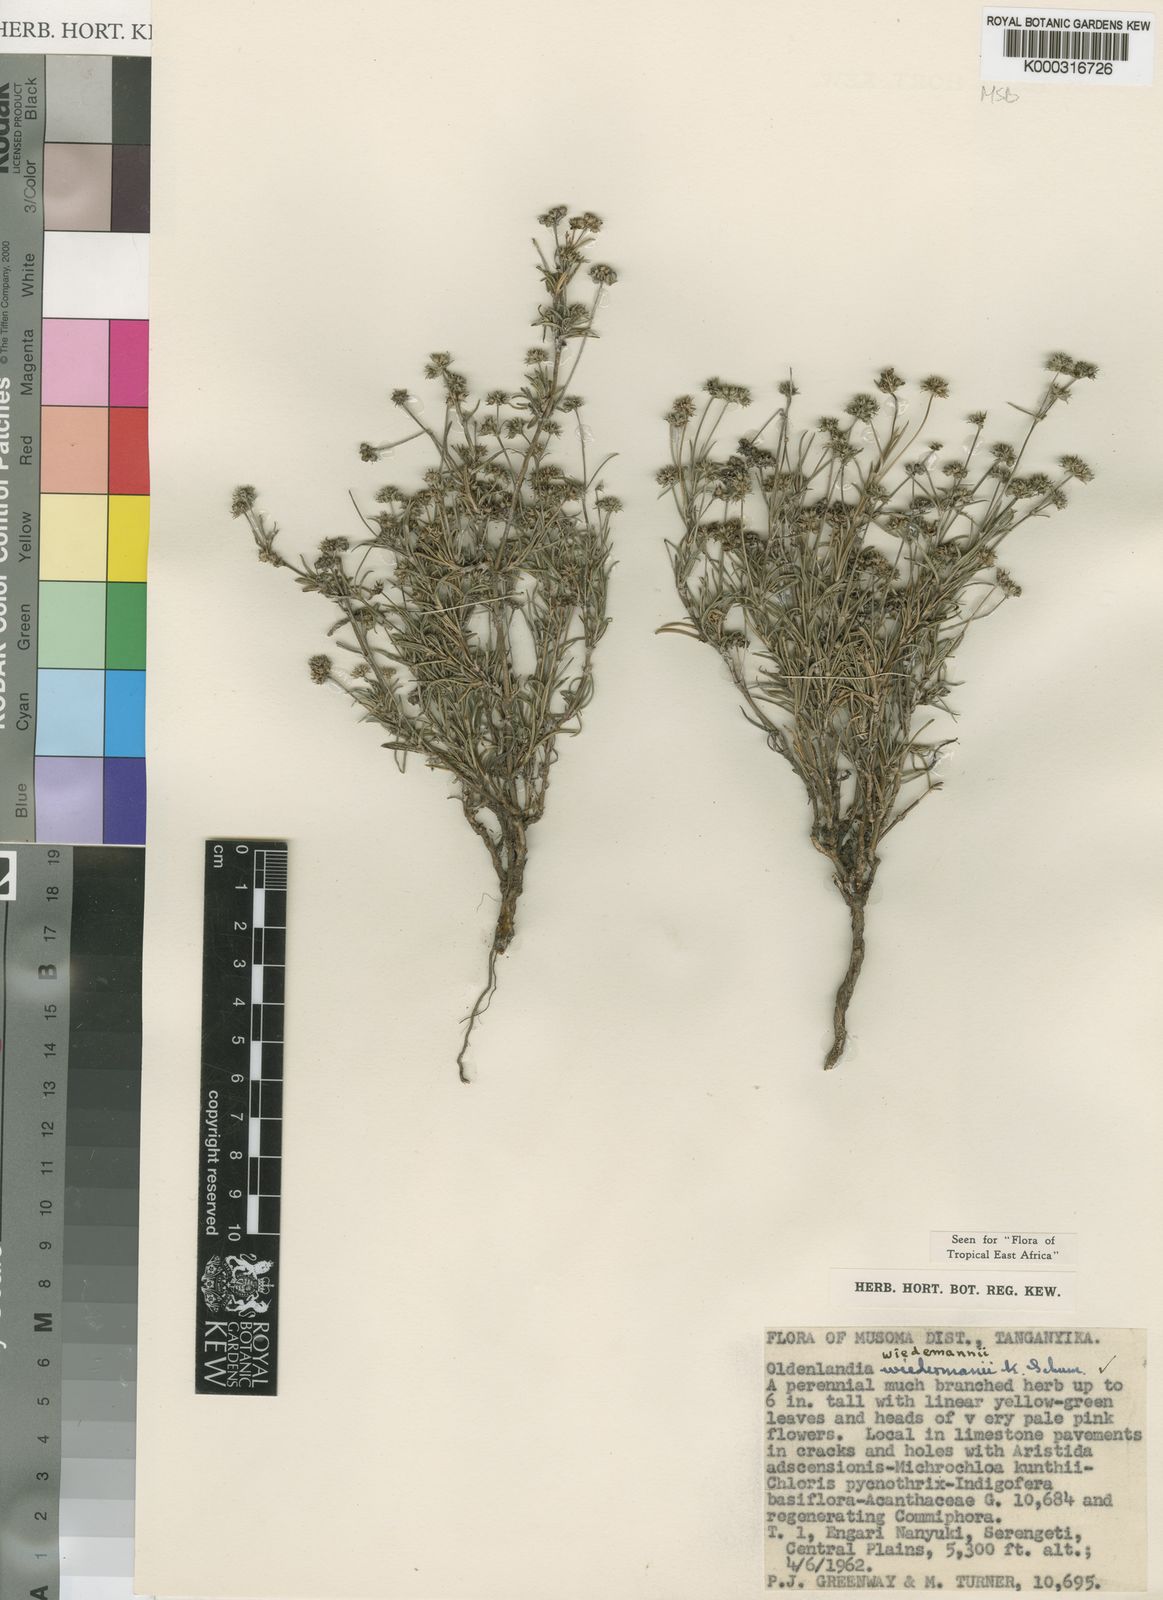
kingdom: Plantae
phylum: Tracheophyta
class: Magnoliopsida
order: Gentianales
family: Rubiaceae
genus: Oldenlandia
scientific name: Oldenlandia wiedemannii
